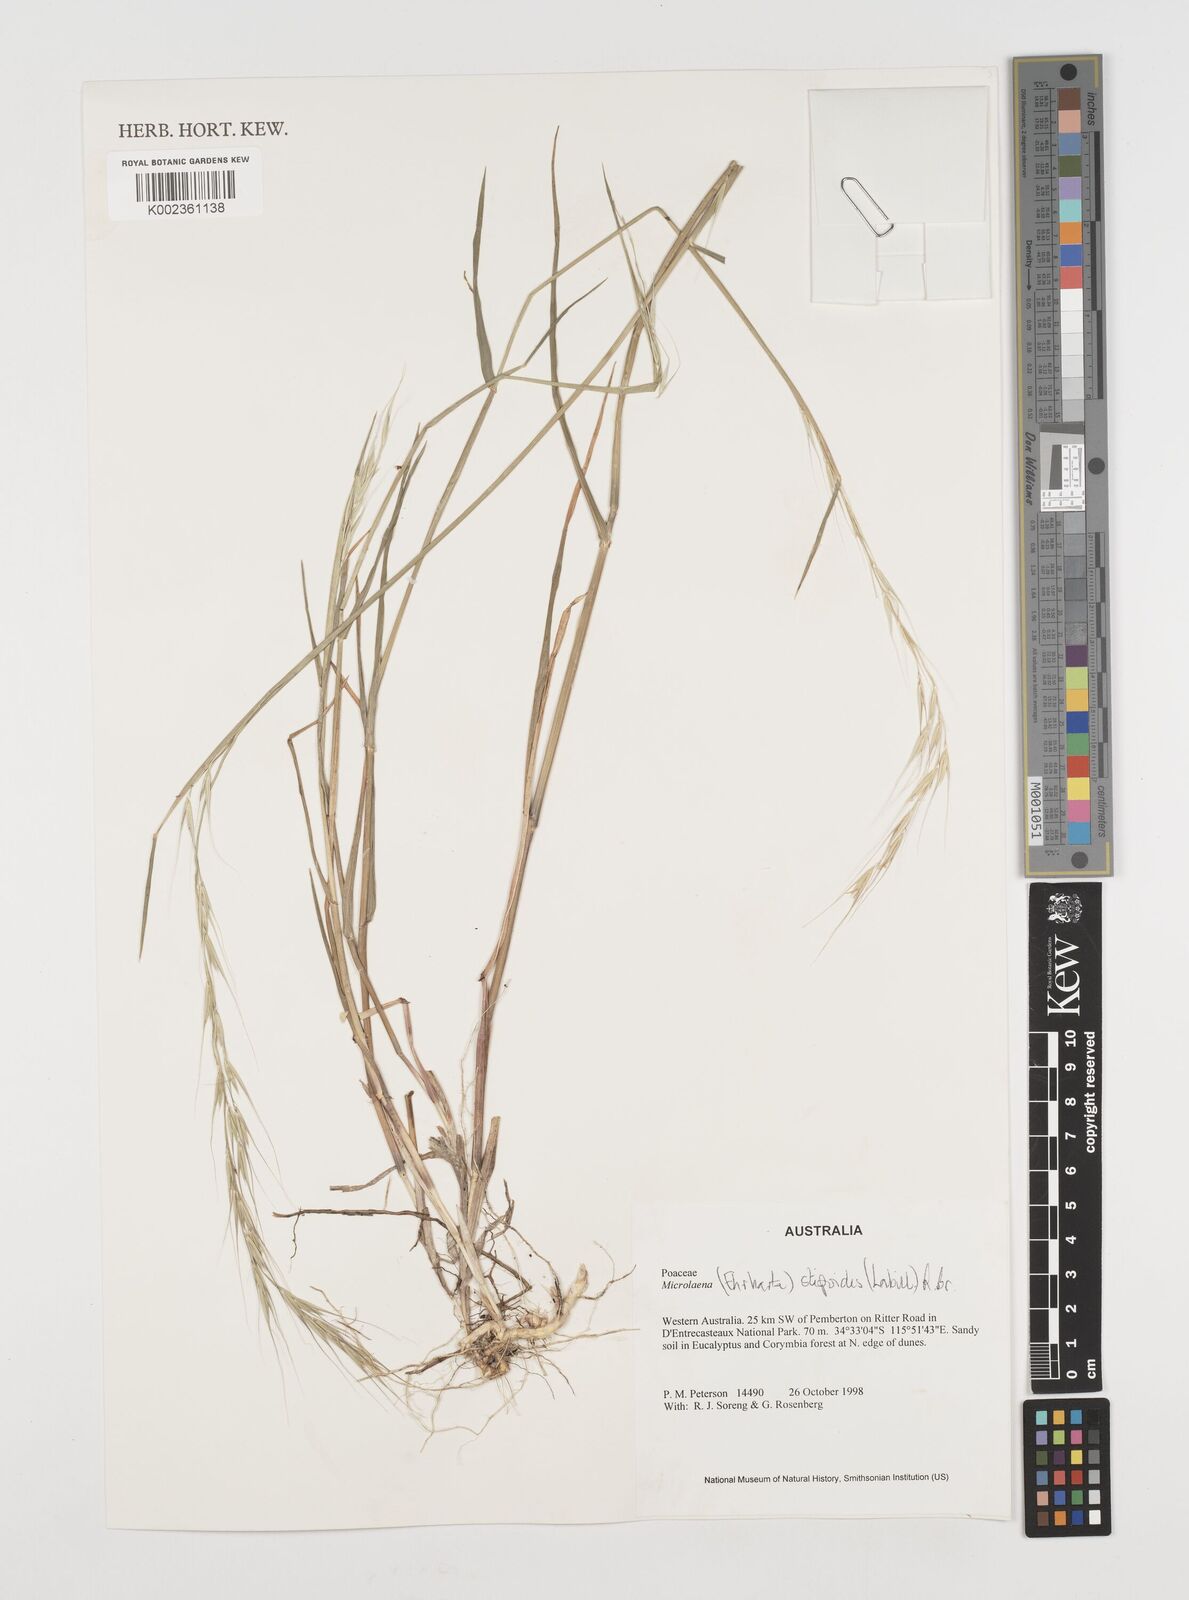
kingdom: Plantae
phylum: Tracheophyta
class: Liliopsida
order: Poales
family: Poaceae
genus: Microlaena
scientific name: Microlaena stipoides
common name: Meadow ricegrass
